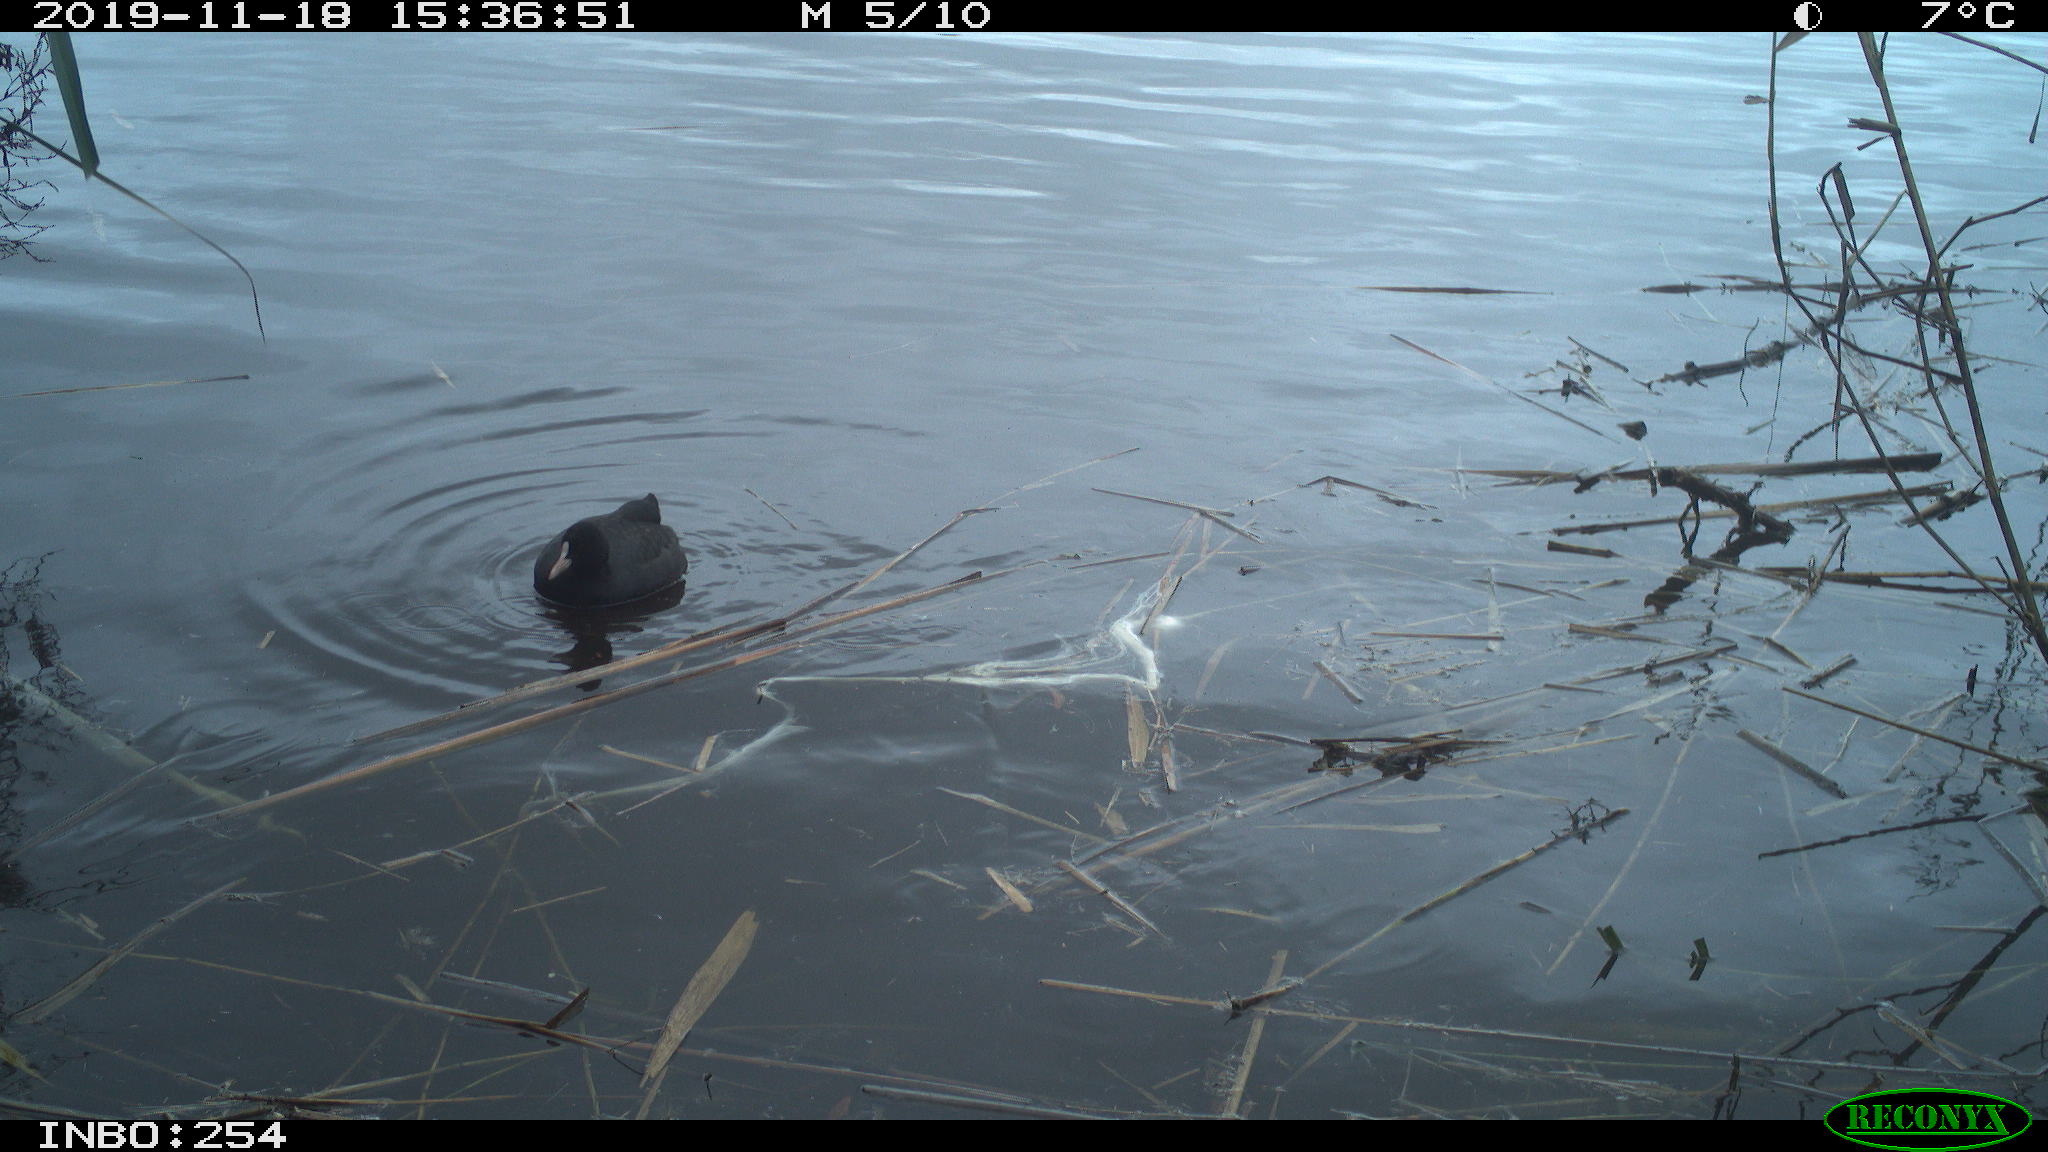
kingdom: Animalia
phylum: Chordata
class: Aves
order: Gruiformes
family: Rallidae
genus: Fulica
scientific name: Fulica atra
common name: Eurasian coot
